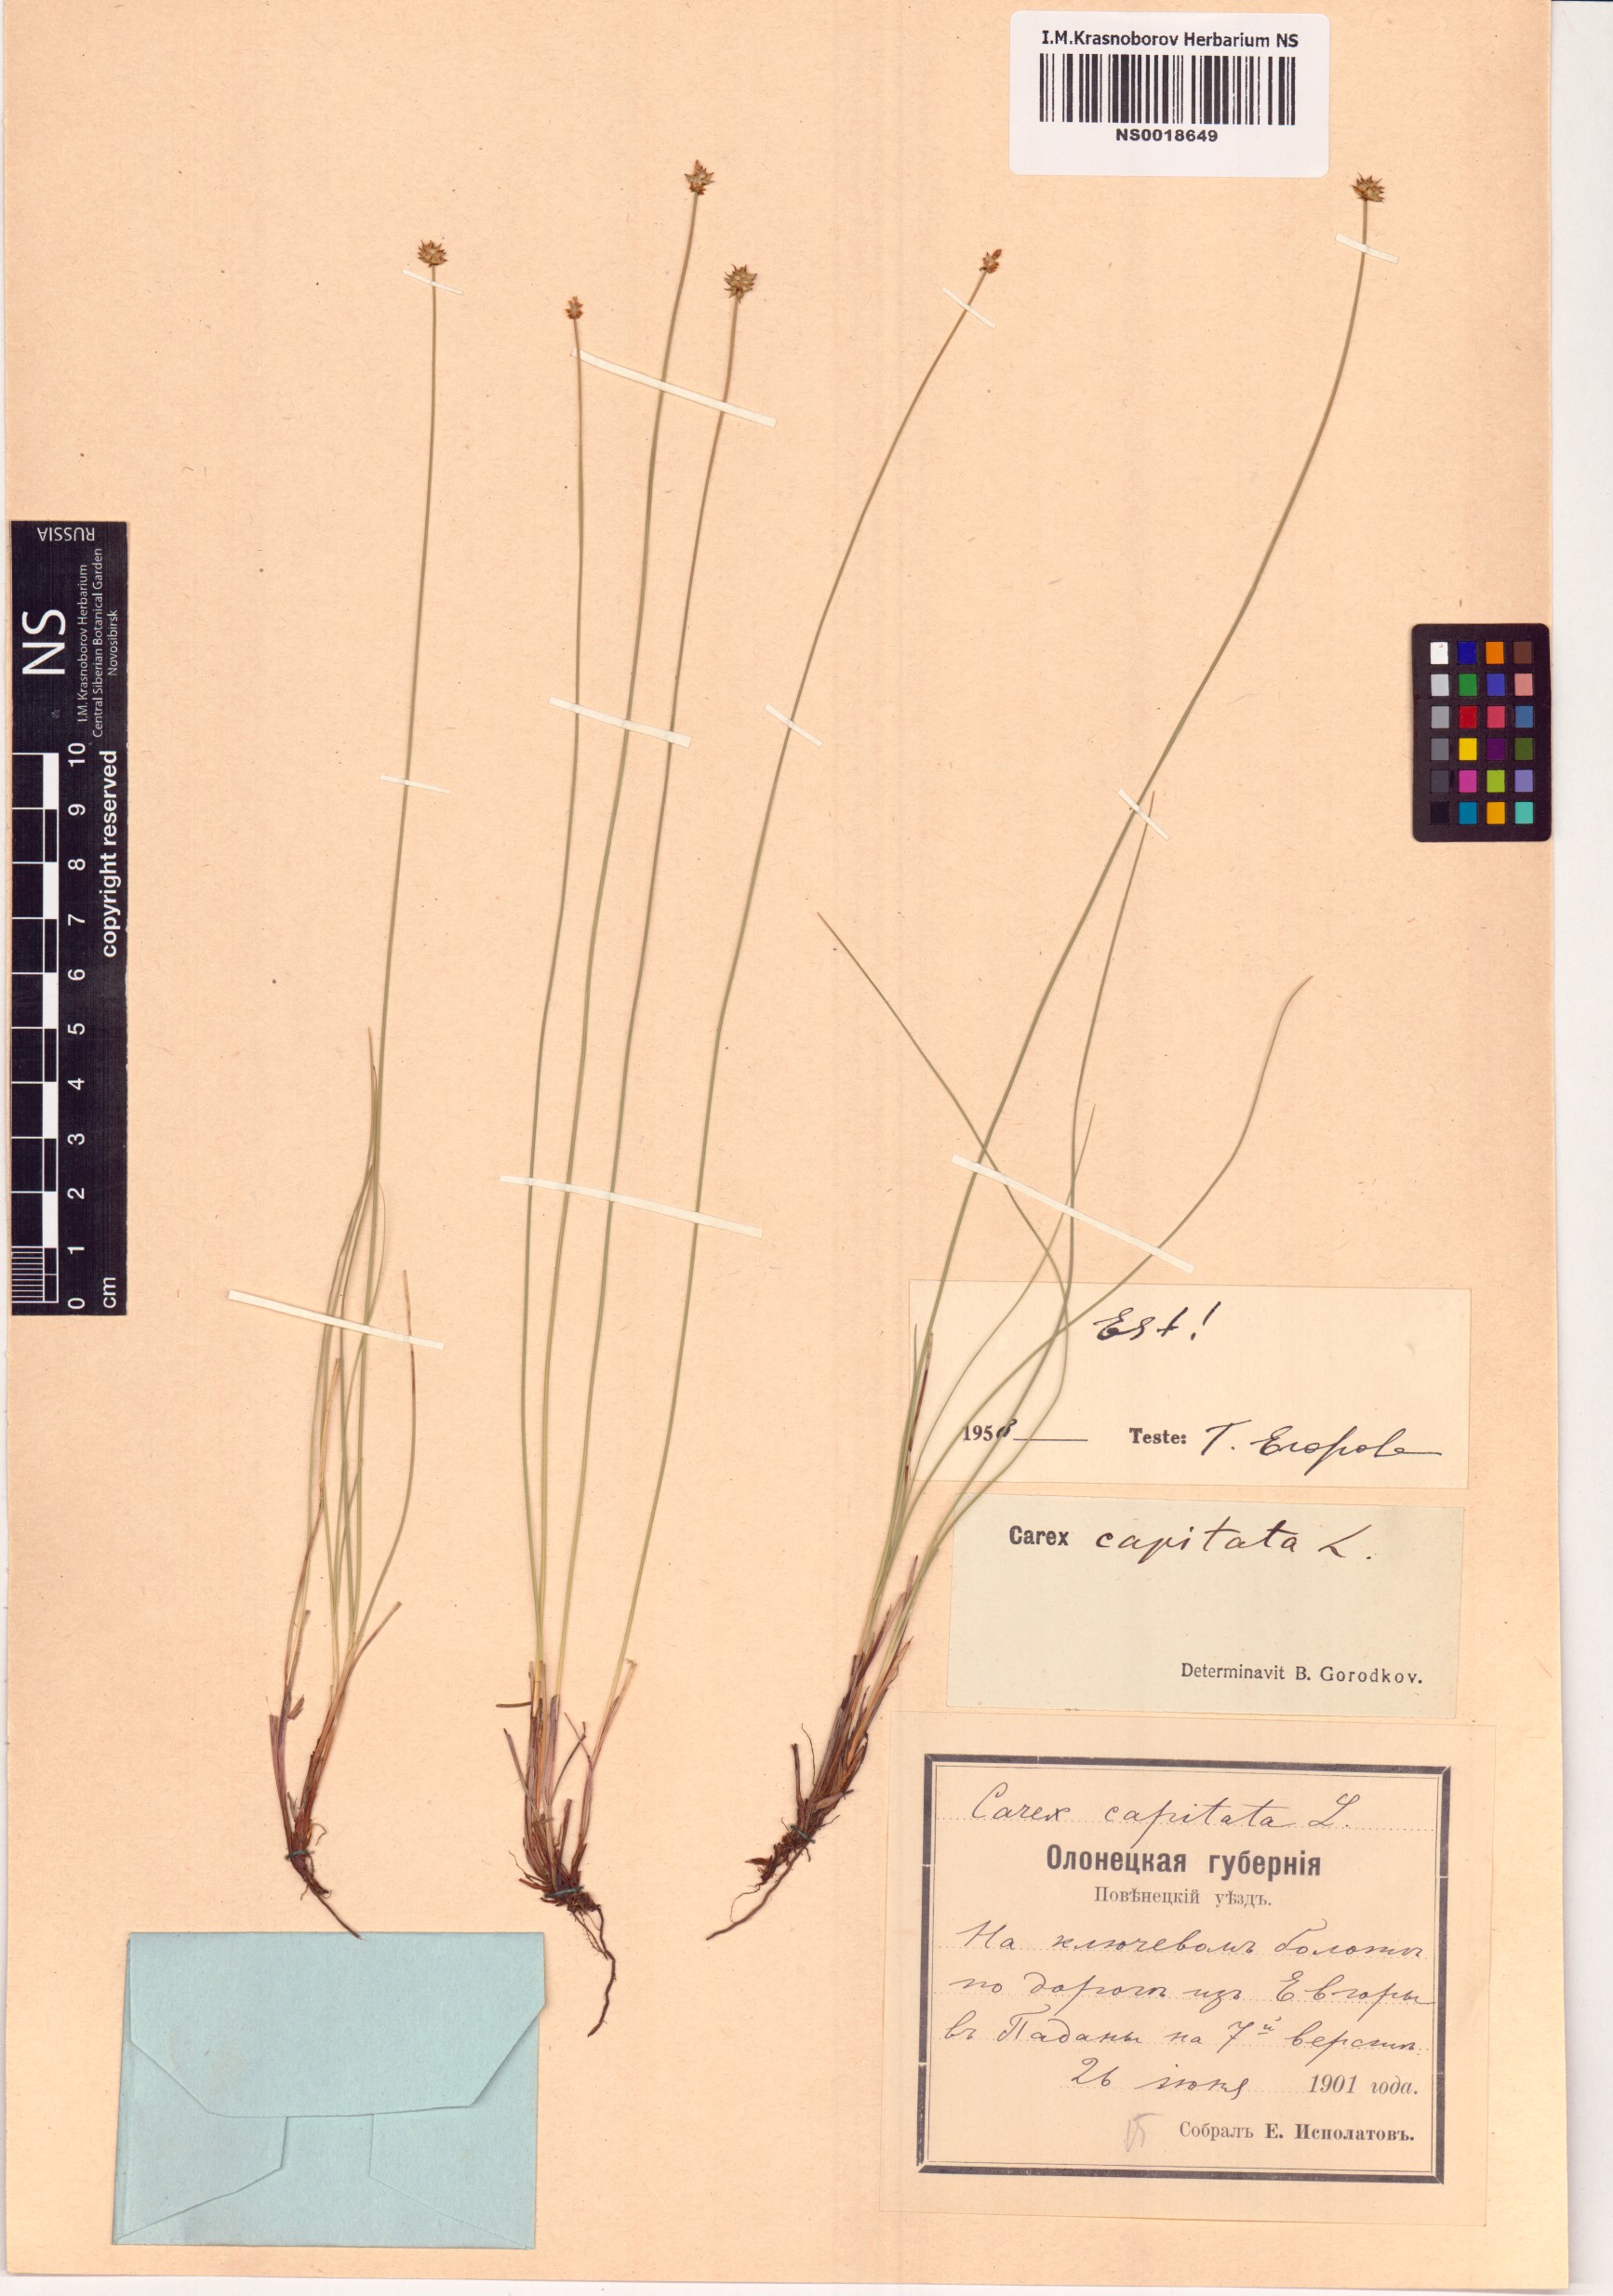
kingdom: Plantae
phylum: Tracheophyta
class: Liliopsida
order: Poales
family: Cyperaceae
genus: Carex
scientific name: Carex capitata
